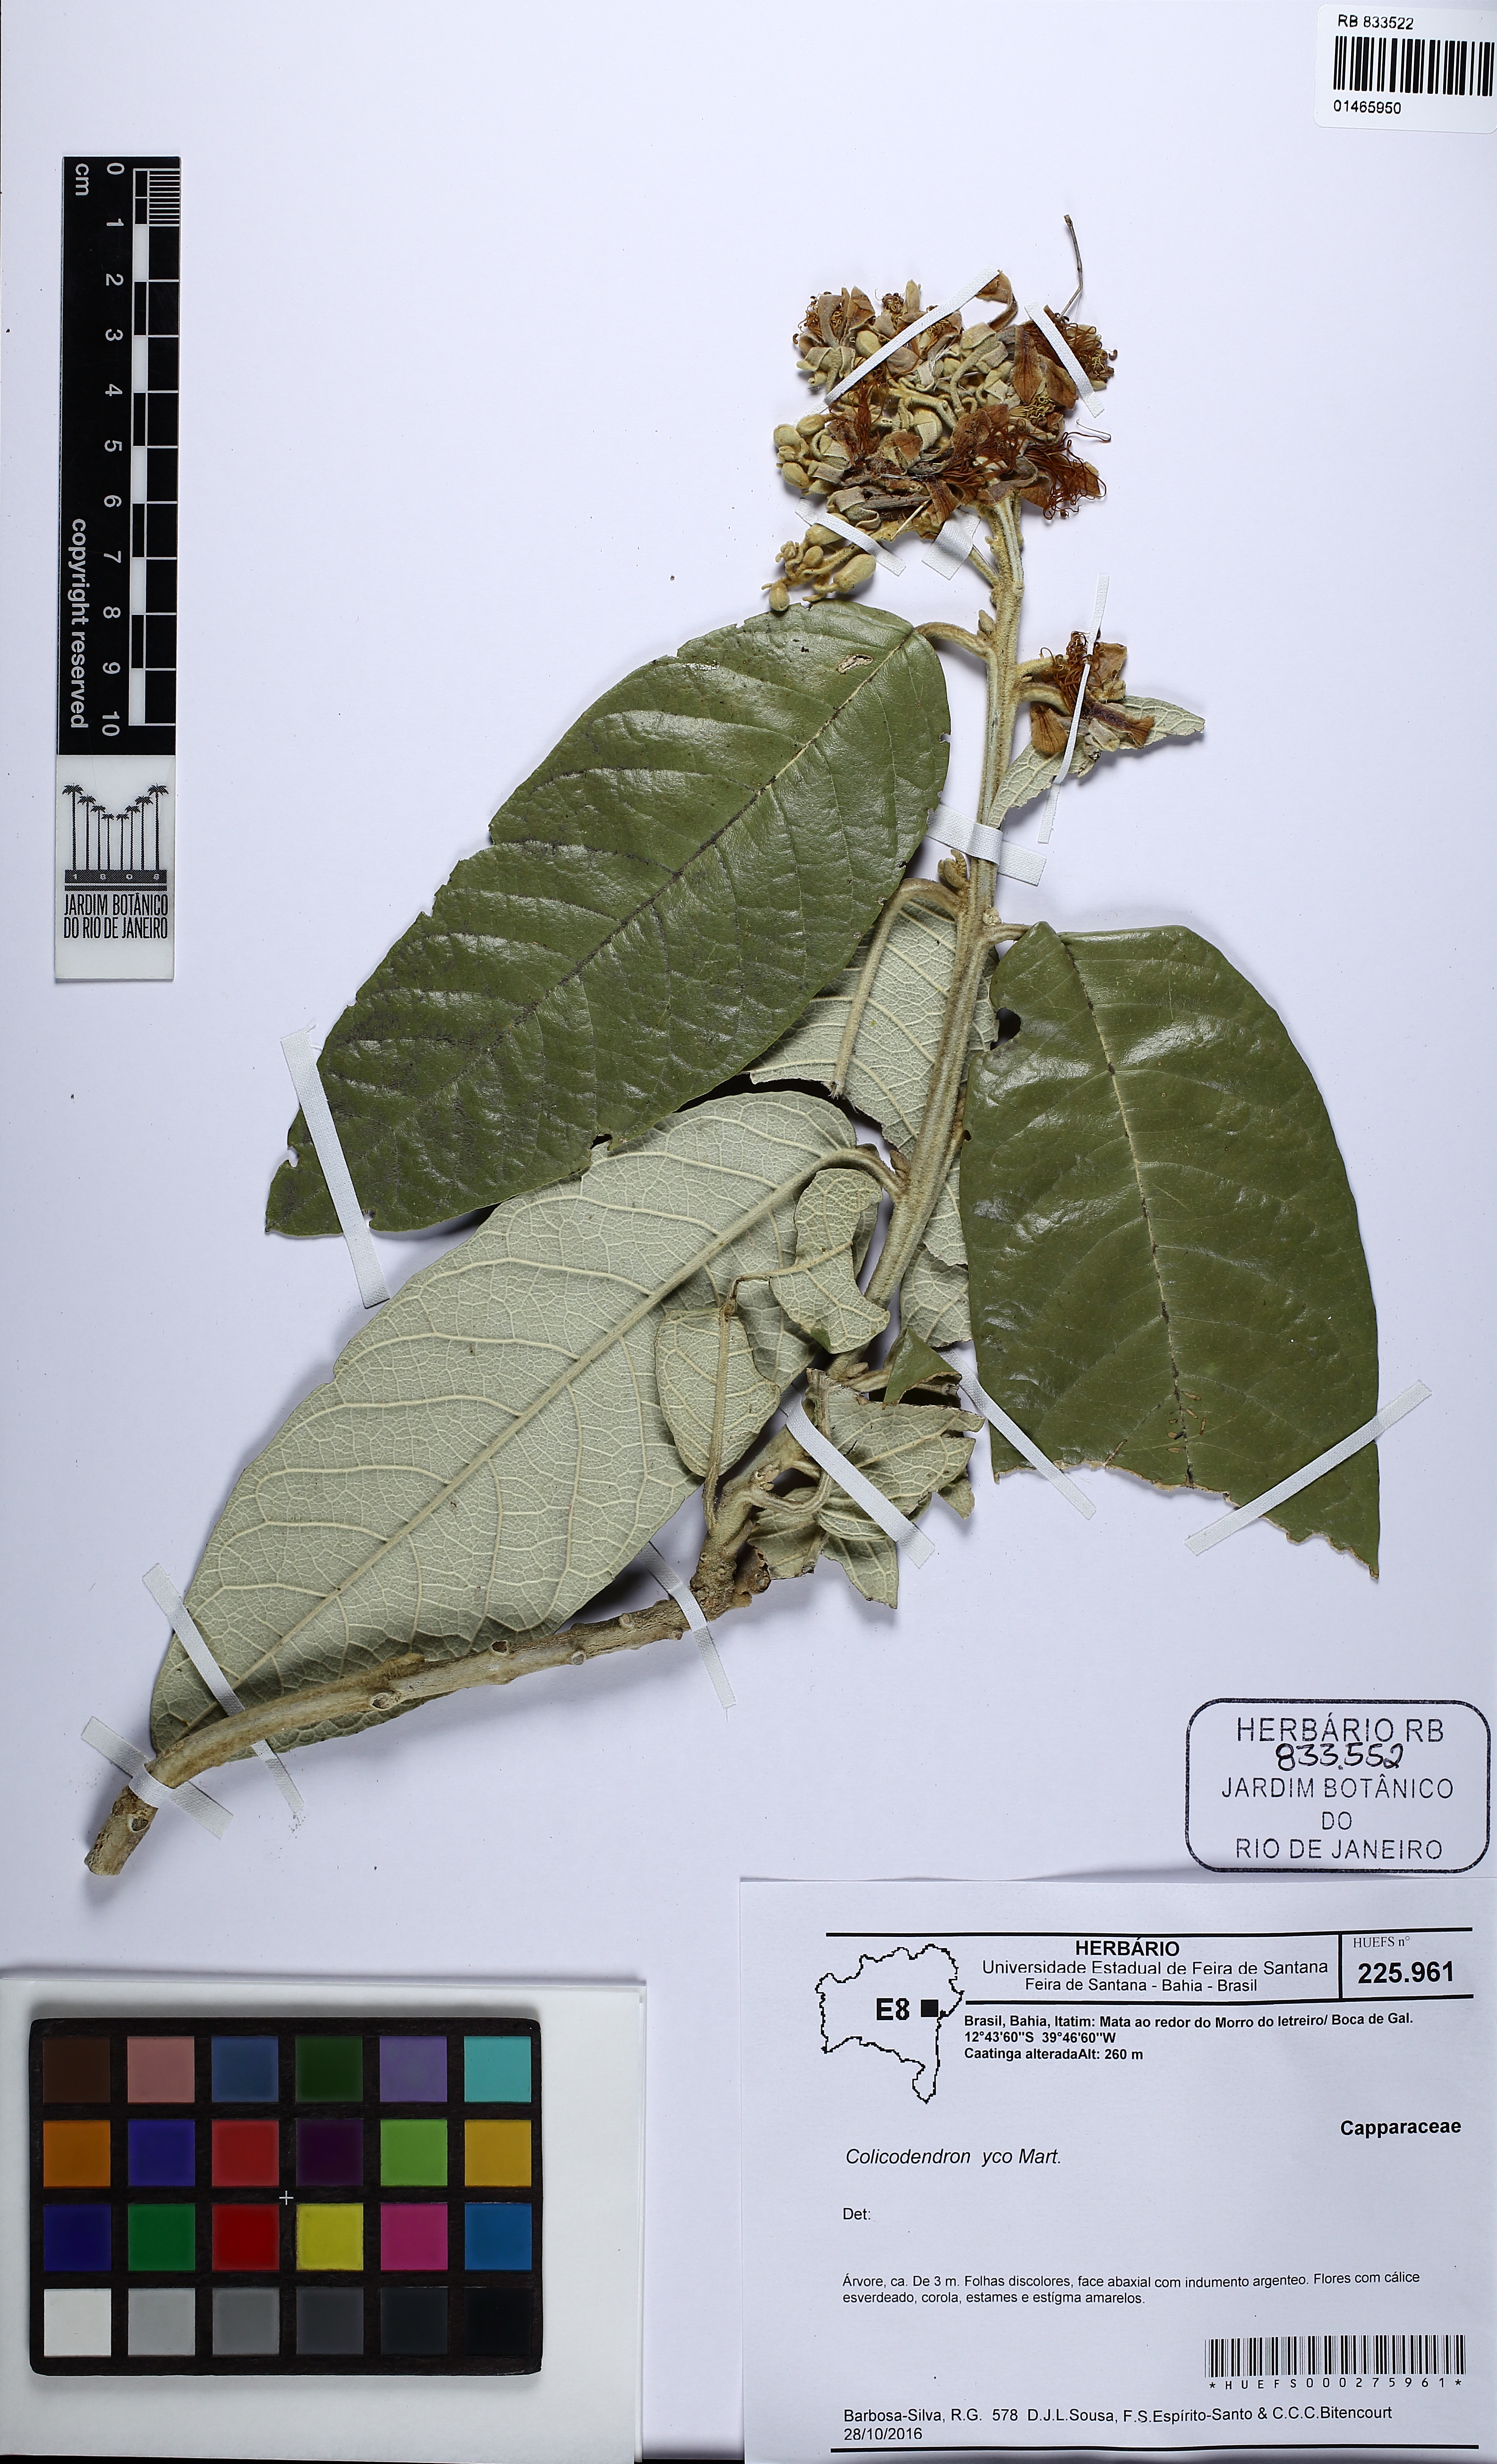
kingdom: Plantae
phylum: Tracheophyta
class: Magnoliopsida
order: Malpighiales
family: Clusiaceae
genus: Clusia
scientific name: Clusia criuva
